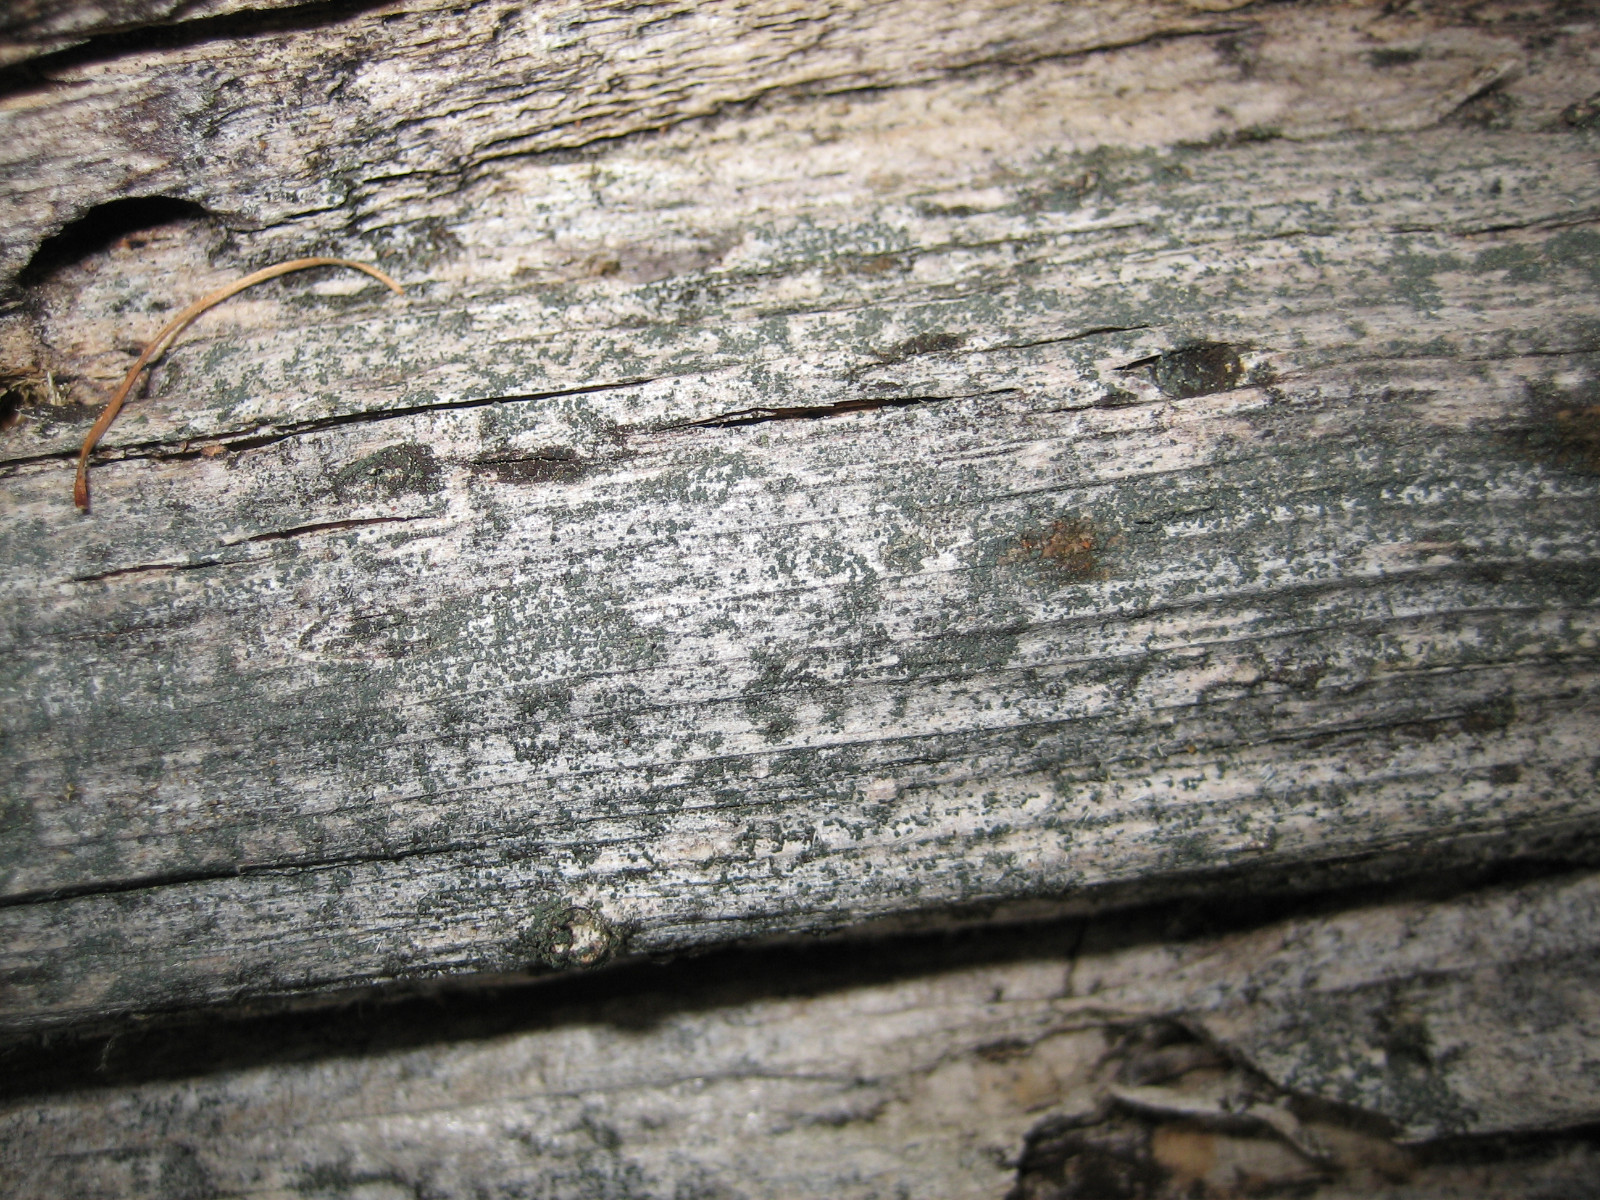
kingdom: Fungi
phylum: Ascomycota
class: Lecanoromycetes
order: Baeomycetales
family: Trapeliaceae
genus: Trapeliopsis
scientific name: Trapeliopsis flexuosa
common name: spanskgrøn skivelav
